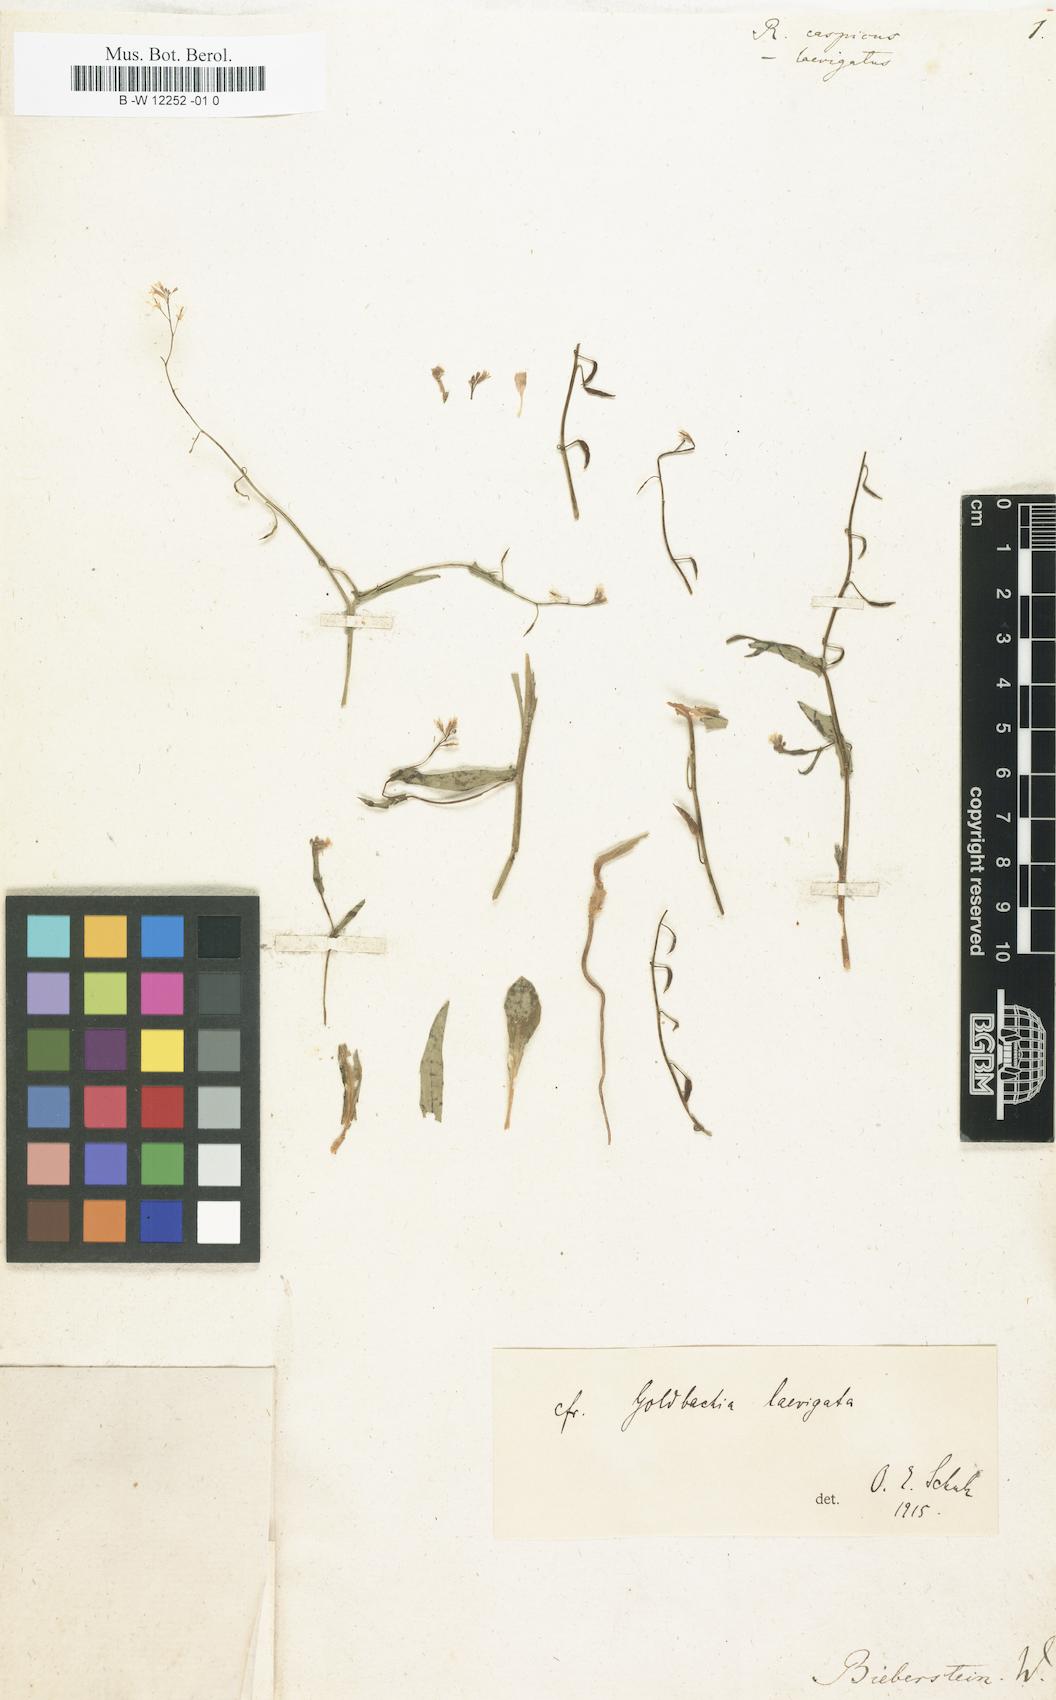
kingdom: Plantae
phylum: Tracheophyta
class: Magnoliopsida
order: Brassicales
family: Brassicaceae
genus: Goldbachia
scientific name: Goldbachia laevigata
